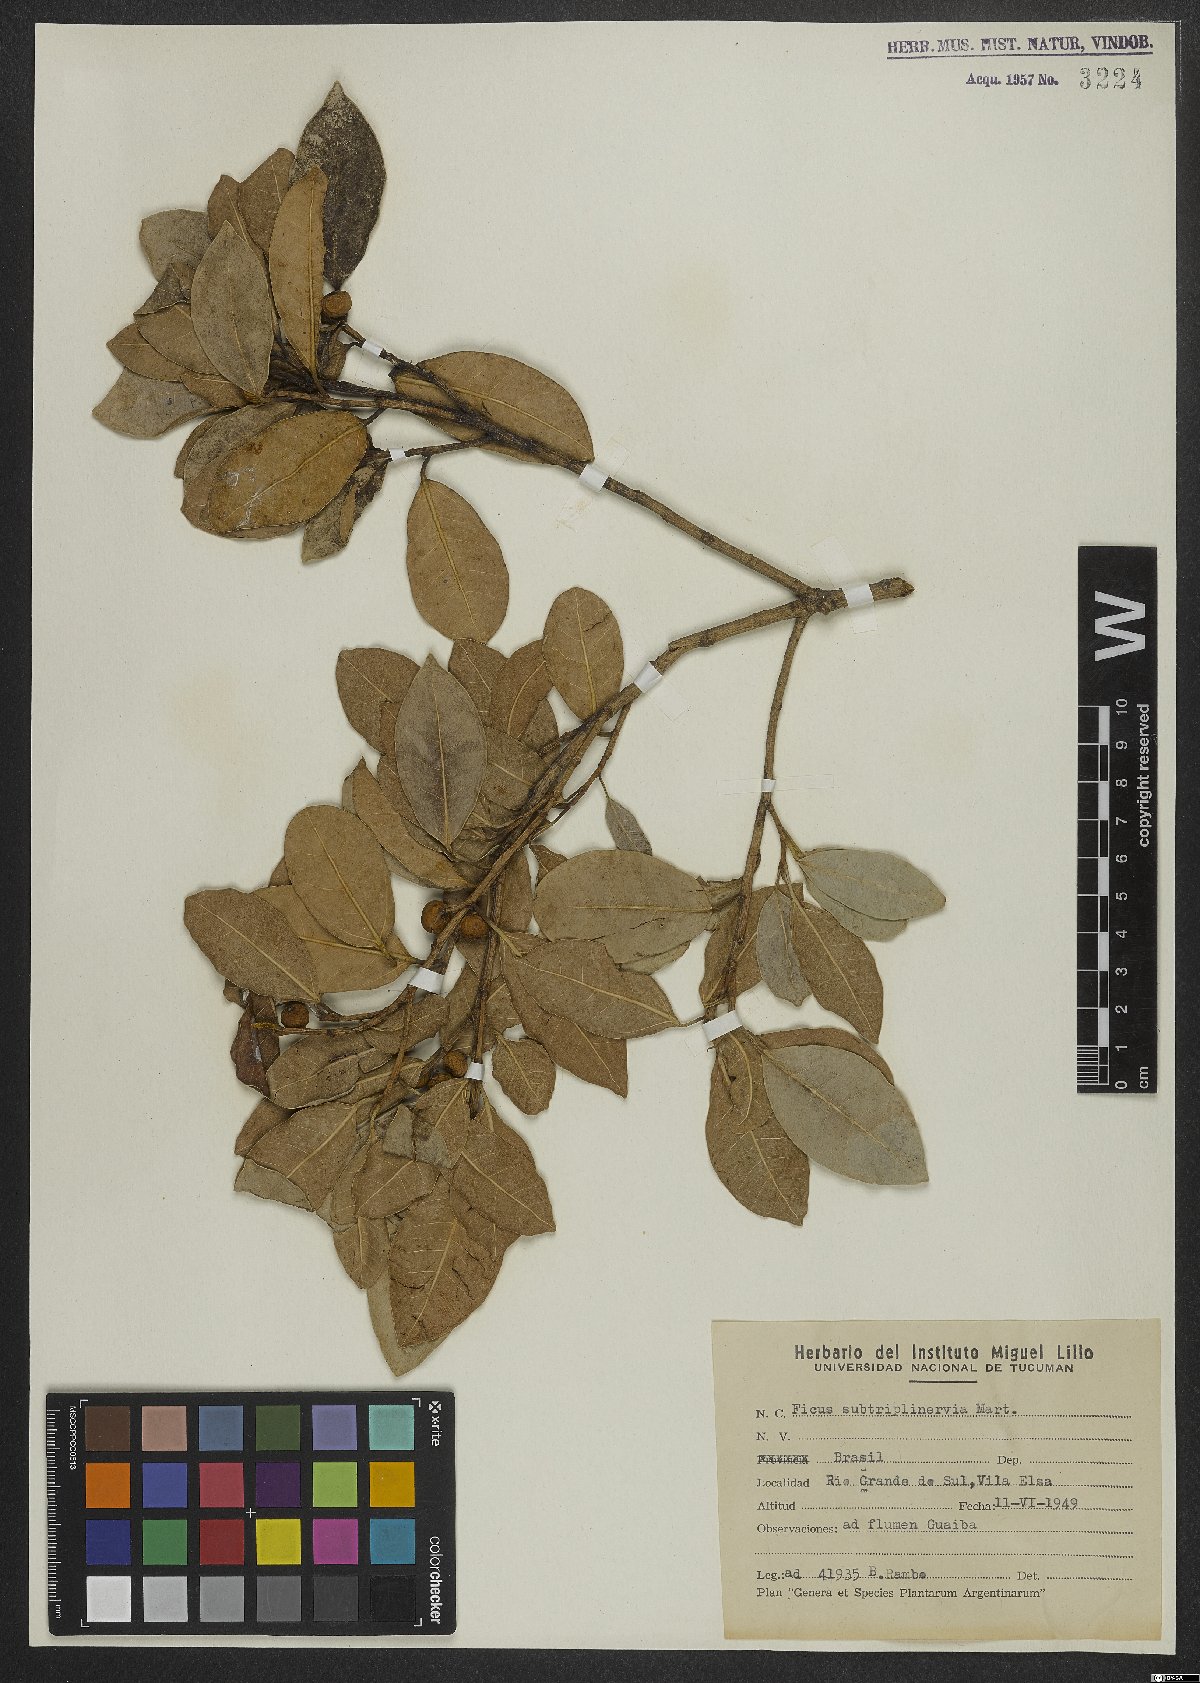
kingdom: Plantae
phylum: Tracheophyta
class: Magnoliopsida
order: Rosales
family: Moraceae
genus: Ficus
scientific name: Ficus pertusa
